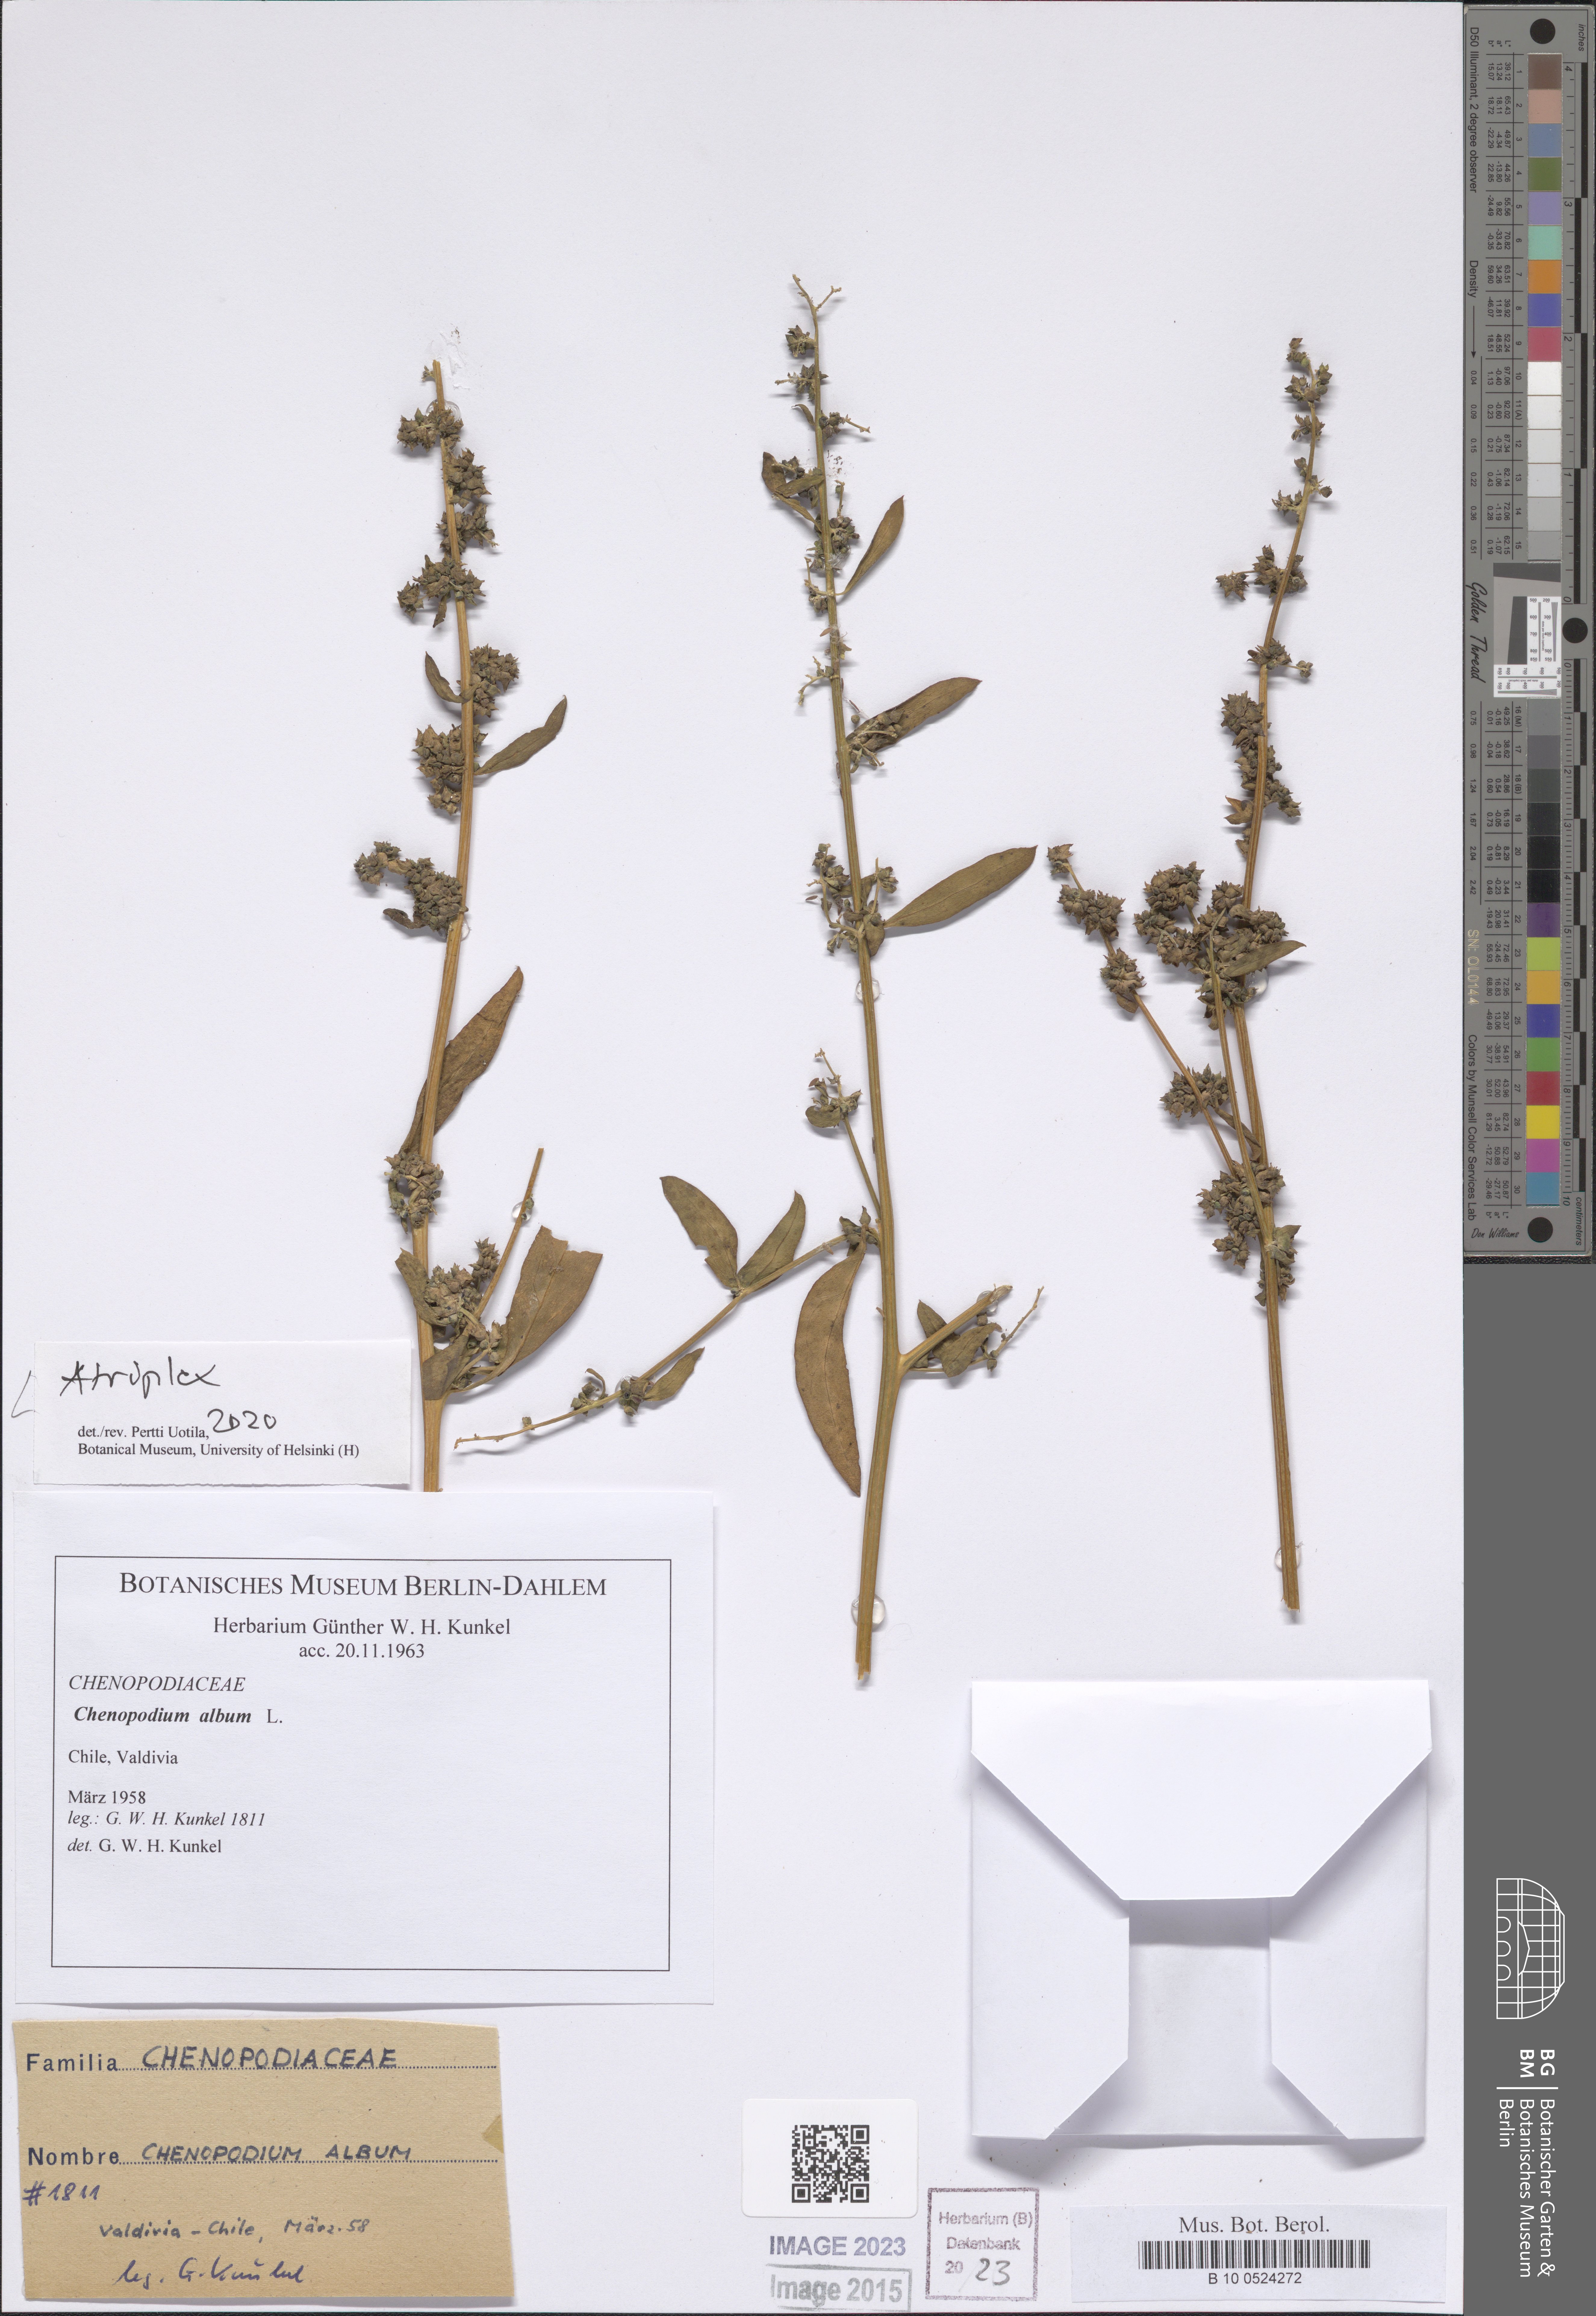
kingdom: Plantae
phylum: Tracheophyta
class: Magnoliopsida
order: Caryophyllales
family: Amaranthaceae
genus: Atriplex
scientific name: Atriplex
